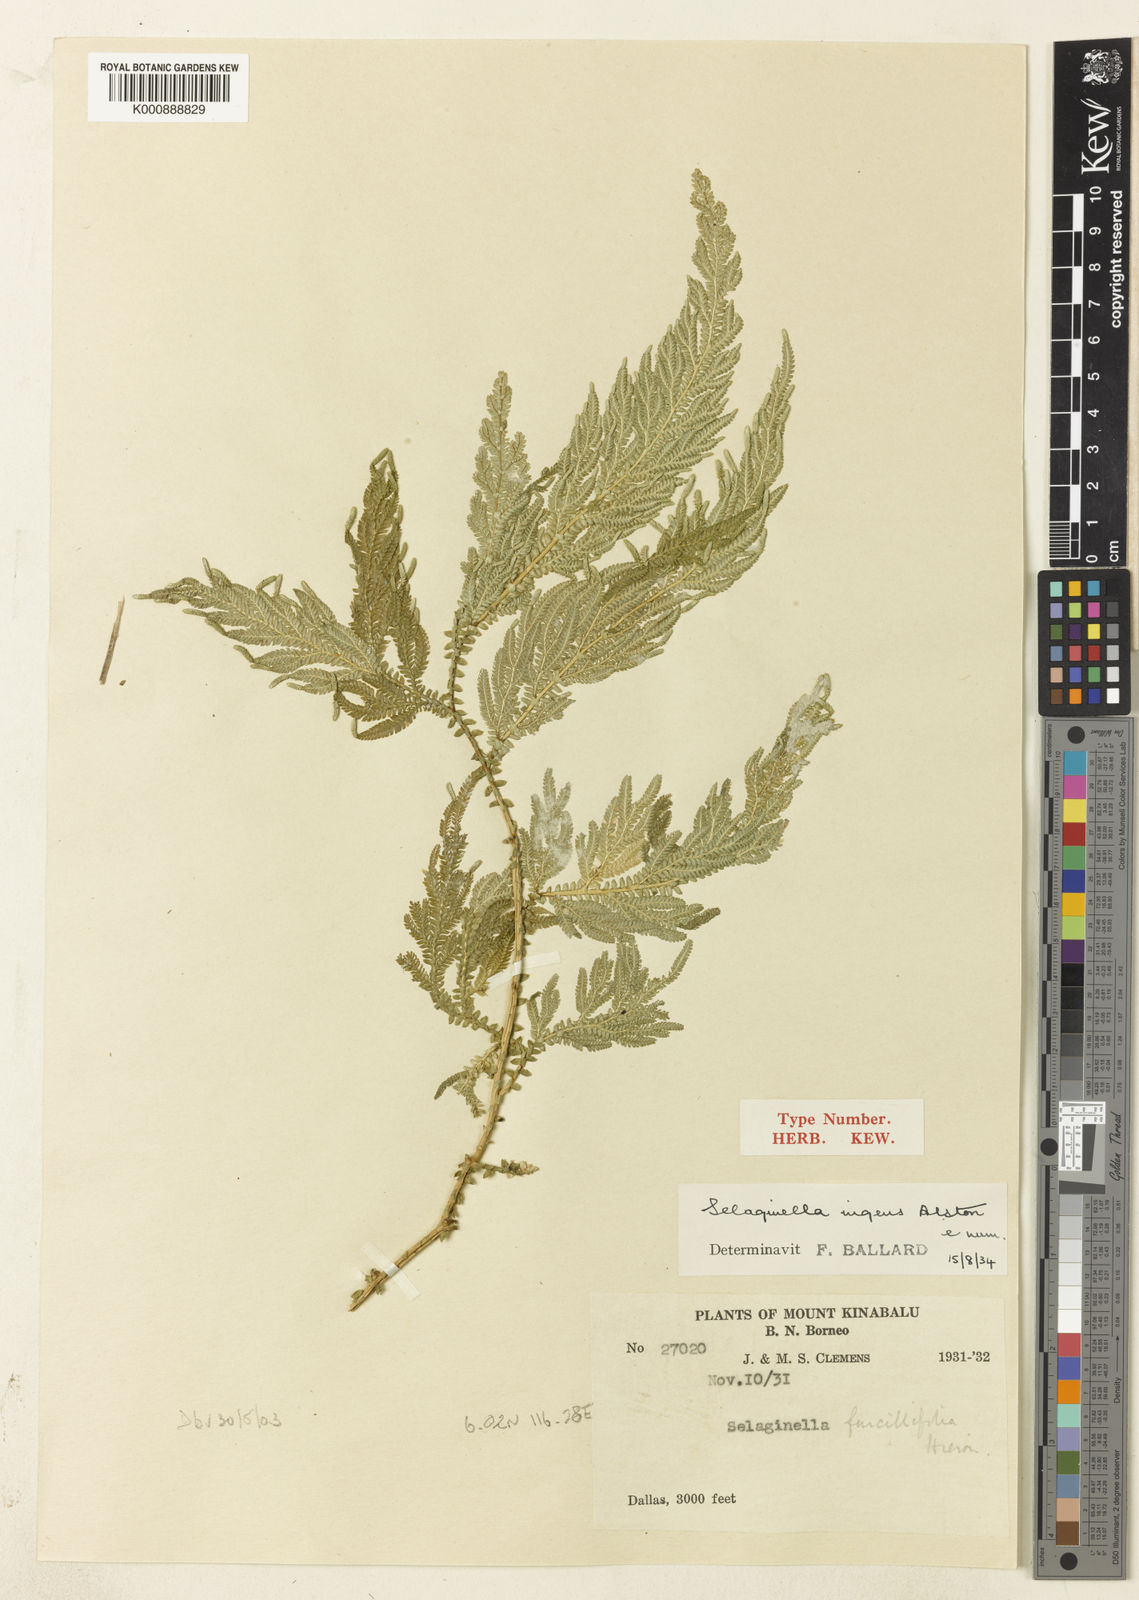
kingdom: Plantae
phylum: Tracheophyta
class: Lycopodiopsida
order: Selaginellales
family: Selaginellaceae
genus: Selaginella
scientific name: Selaginella ingens
